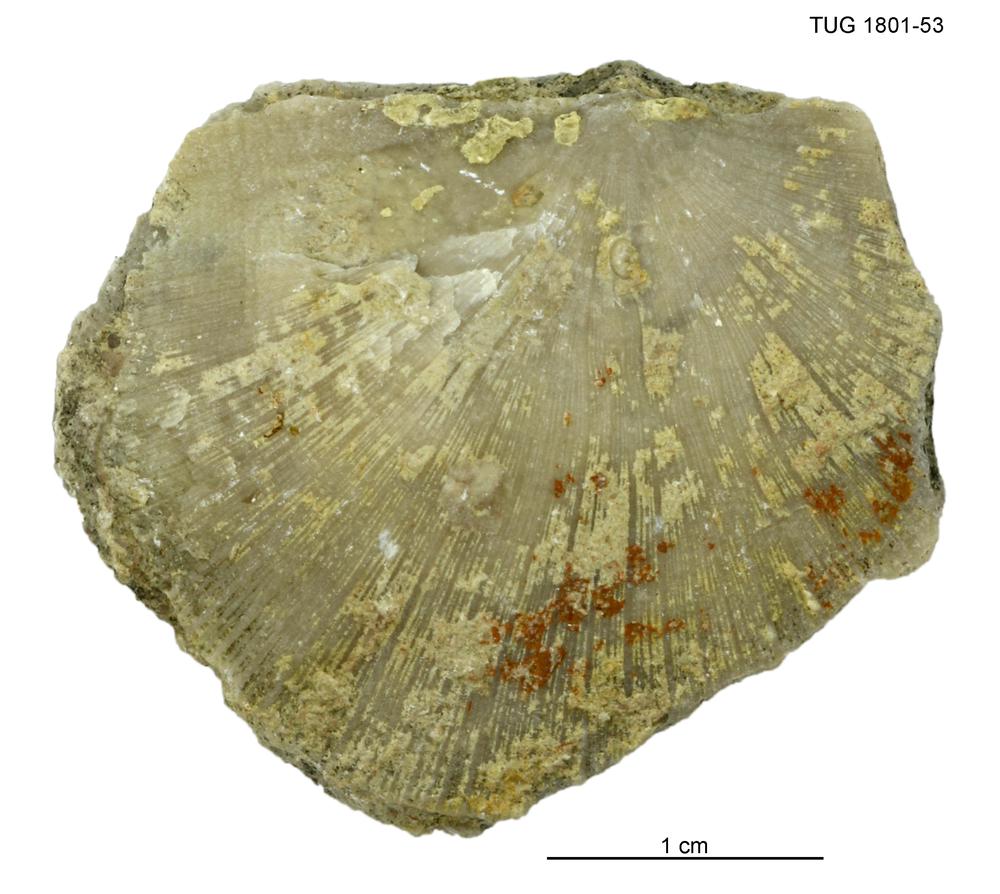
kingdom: Animalia
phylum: Brachiopoda
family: Strophomenidae
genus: Strophomena
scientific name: Strophomena
